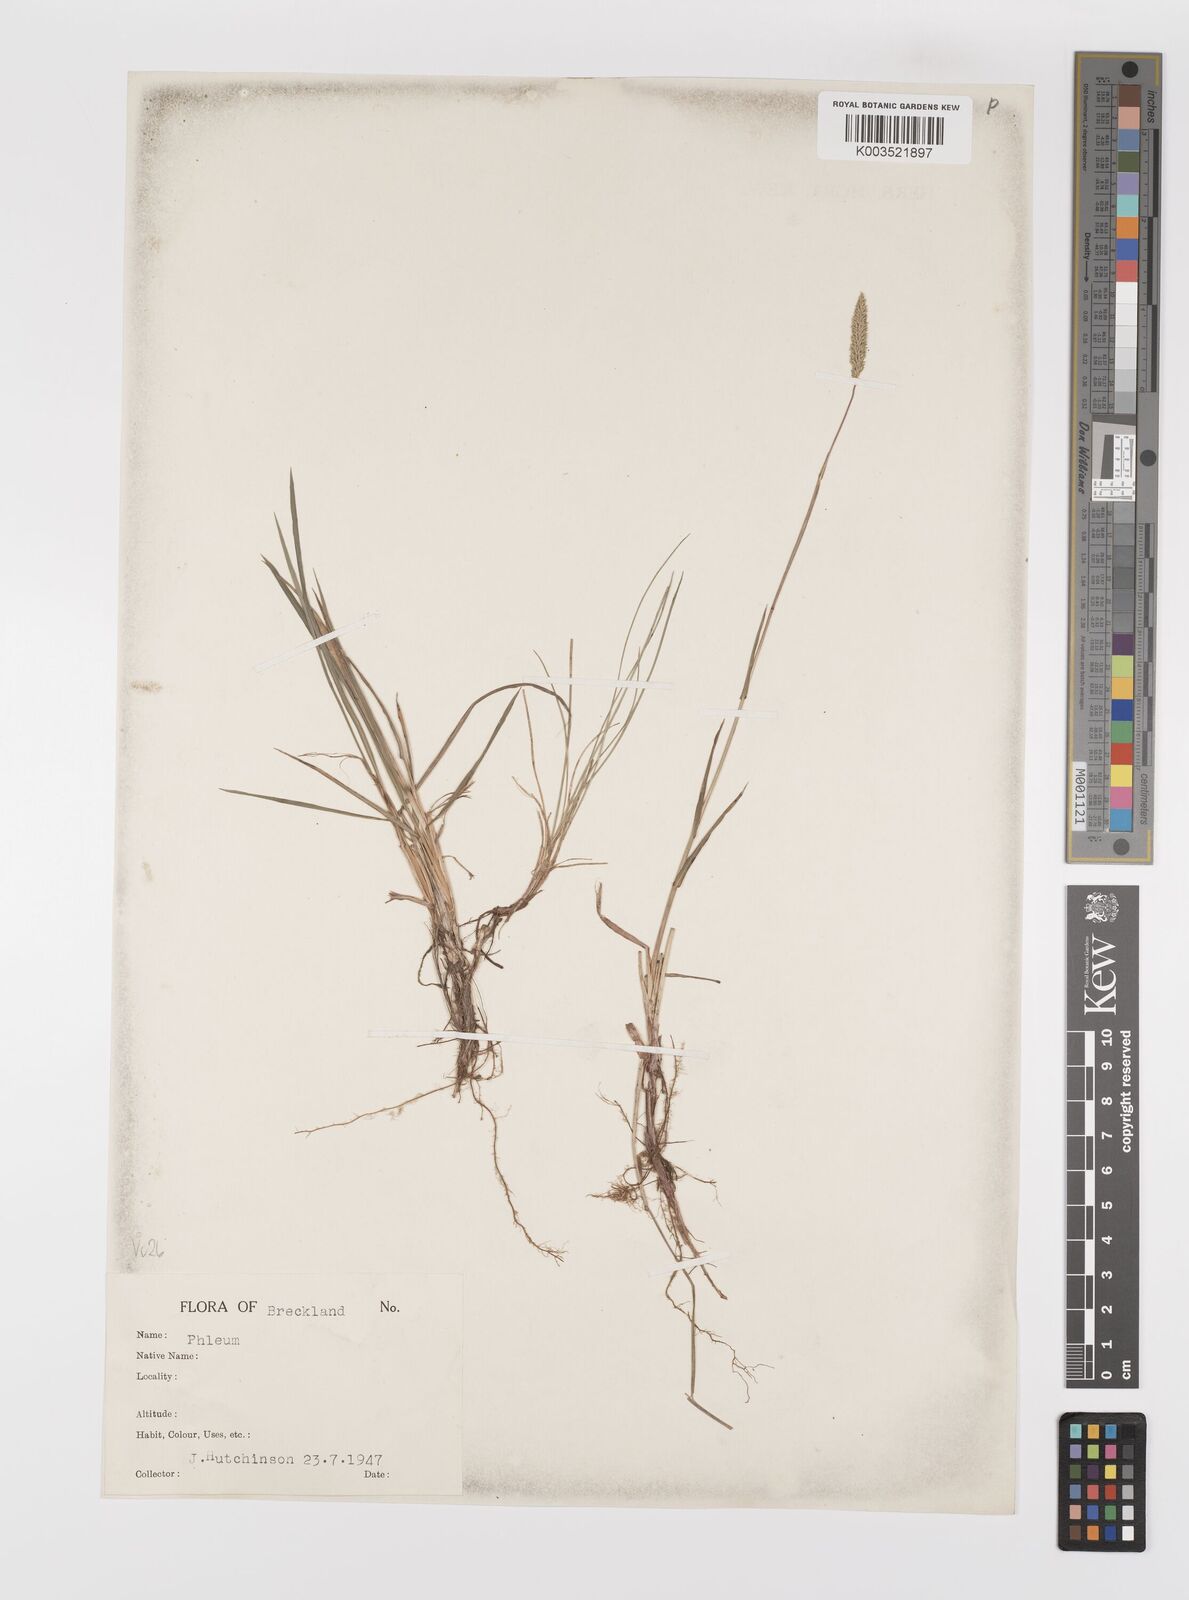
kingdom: Plantae
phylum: Tracheophyta
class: Liliopsida
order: Poales
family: Poaceae
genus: Phleum
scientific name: Phleum bertolonii
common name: Smaller cat's-tail
